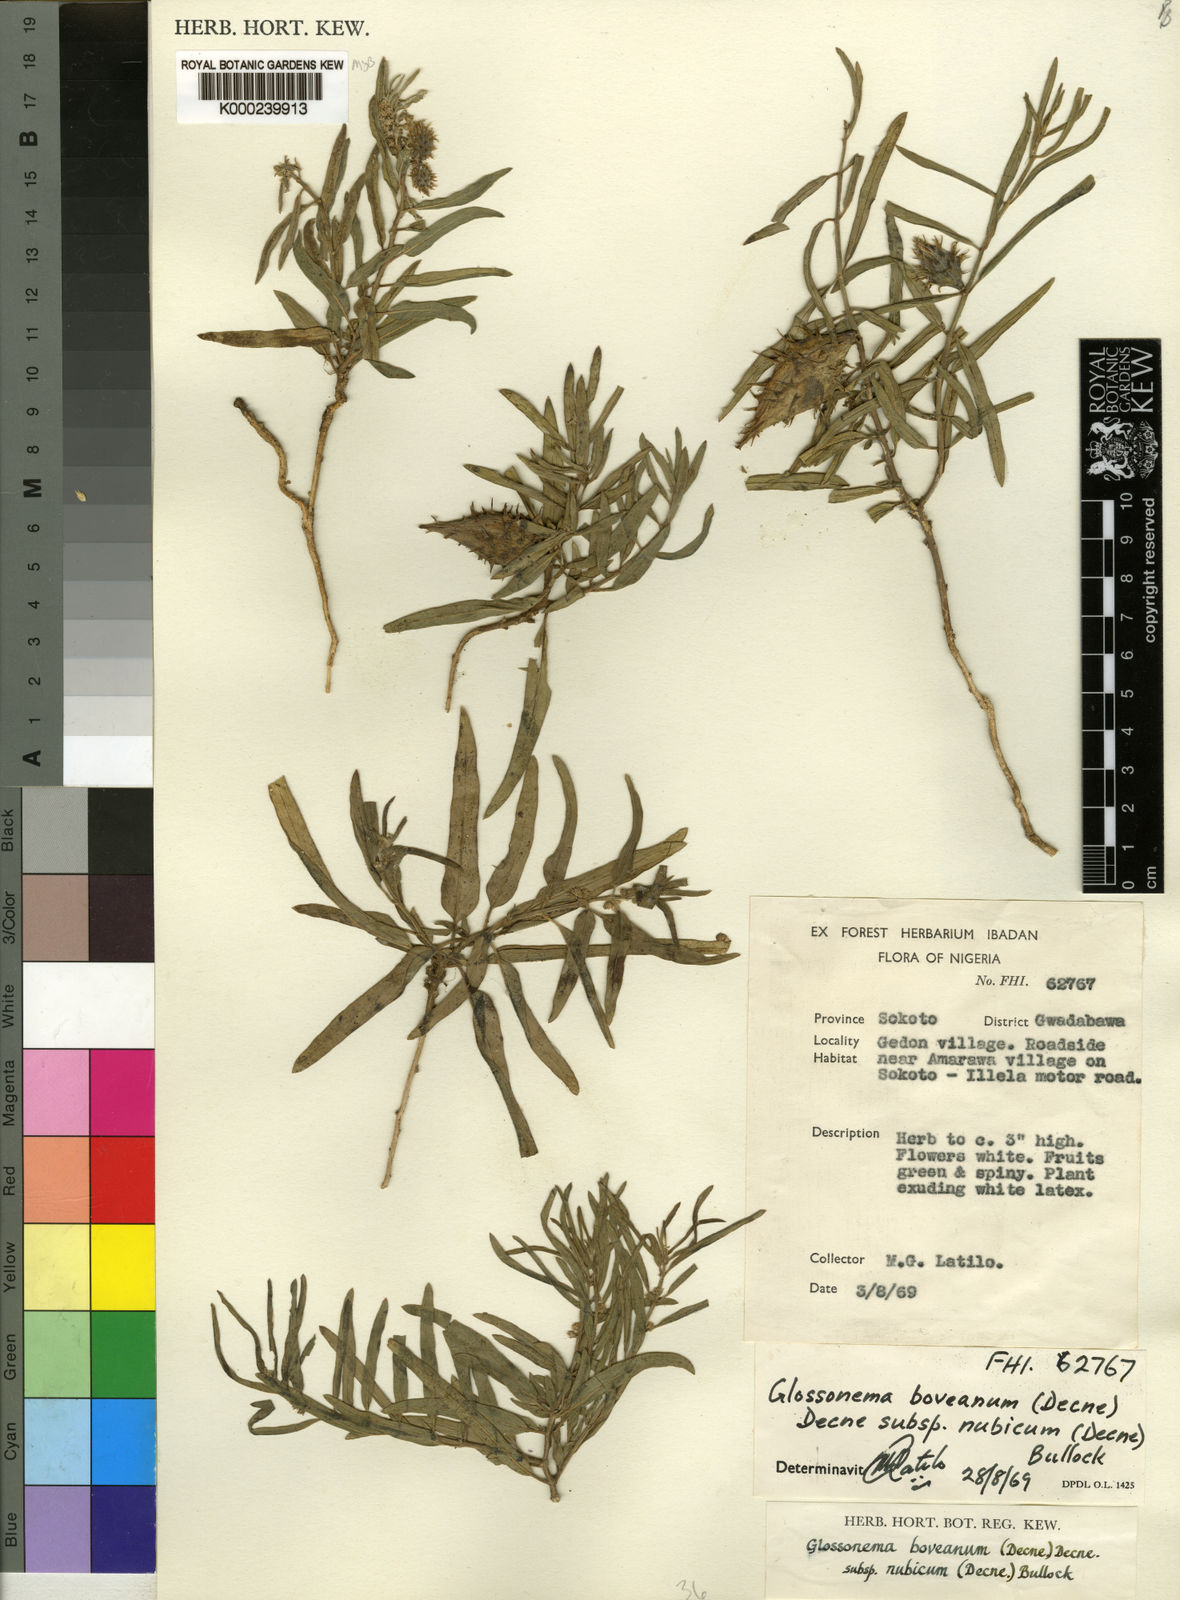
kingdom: Plantae
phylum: Tracheophyta
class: Magnoliopsida
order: Gentianales
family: Apocynaceae
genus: Cynanchum
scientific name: Cynanchum boveanum
